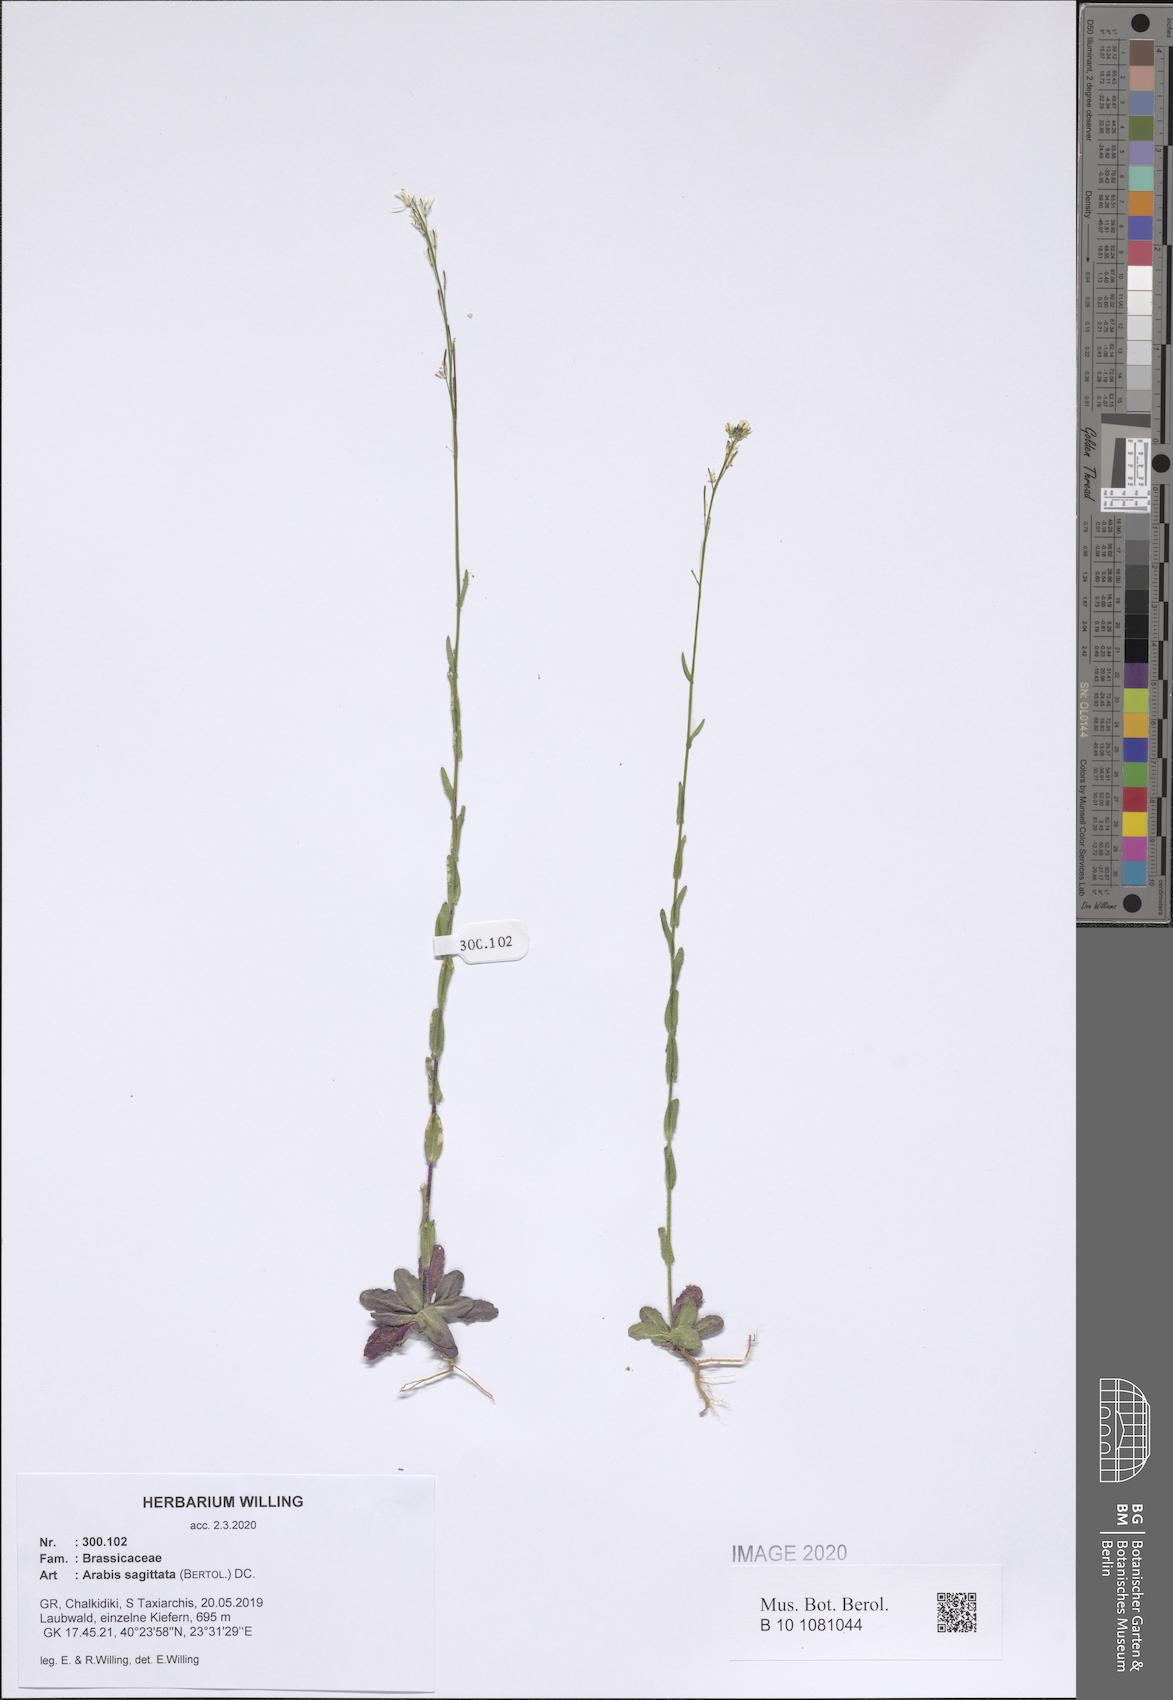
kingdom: Plantae
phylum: Tracheophyta
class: Magnoliopsida
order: Brassicales
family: Brassicaceae
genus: Arabis
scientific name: Arabis sagittata
